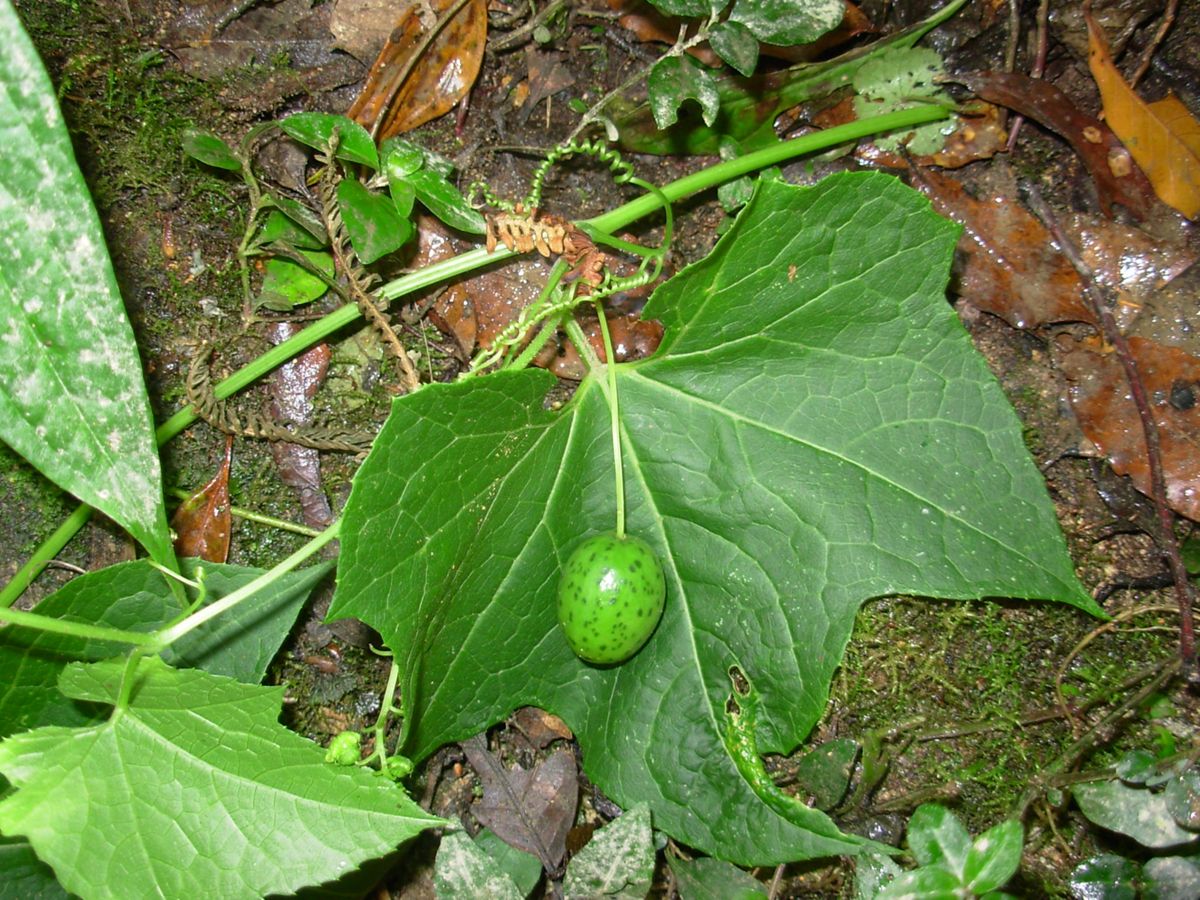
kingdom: Plantae
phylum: Tracheophyta
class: Magnoliopsida
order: Cucurbitales
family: Cucurbitaceae
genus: Parasicyos
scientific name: Parasicyos maculatus
